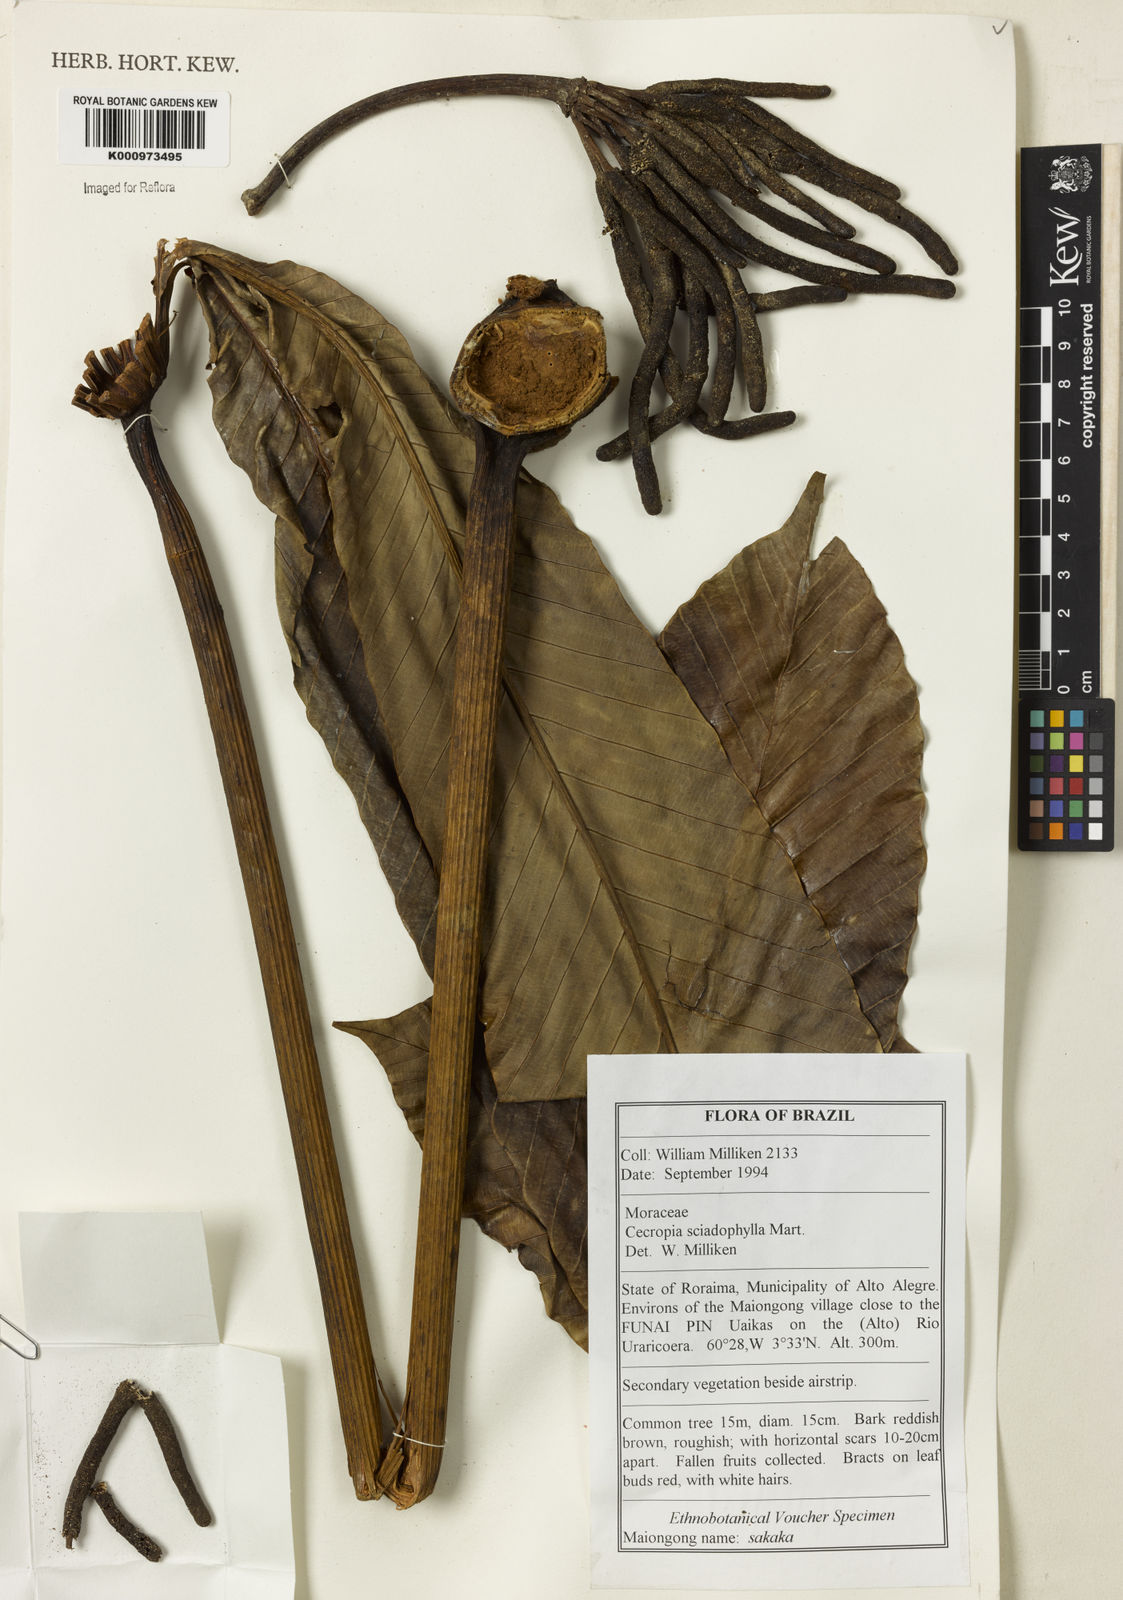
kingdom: Plantae
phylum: Tracheophyta
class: Magnoliopsida
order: Rosales
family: Urticaceae
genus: Cecropia
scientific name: Cecropia sciadophylla
